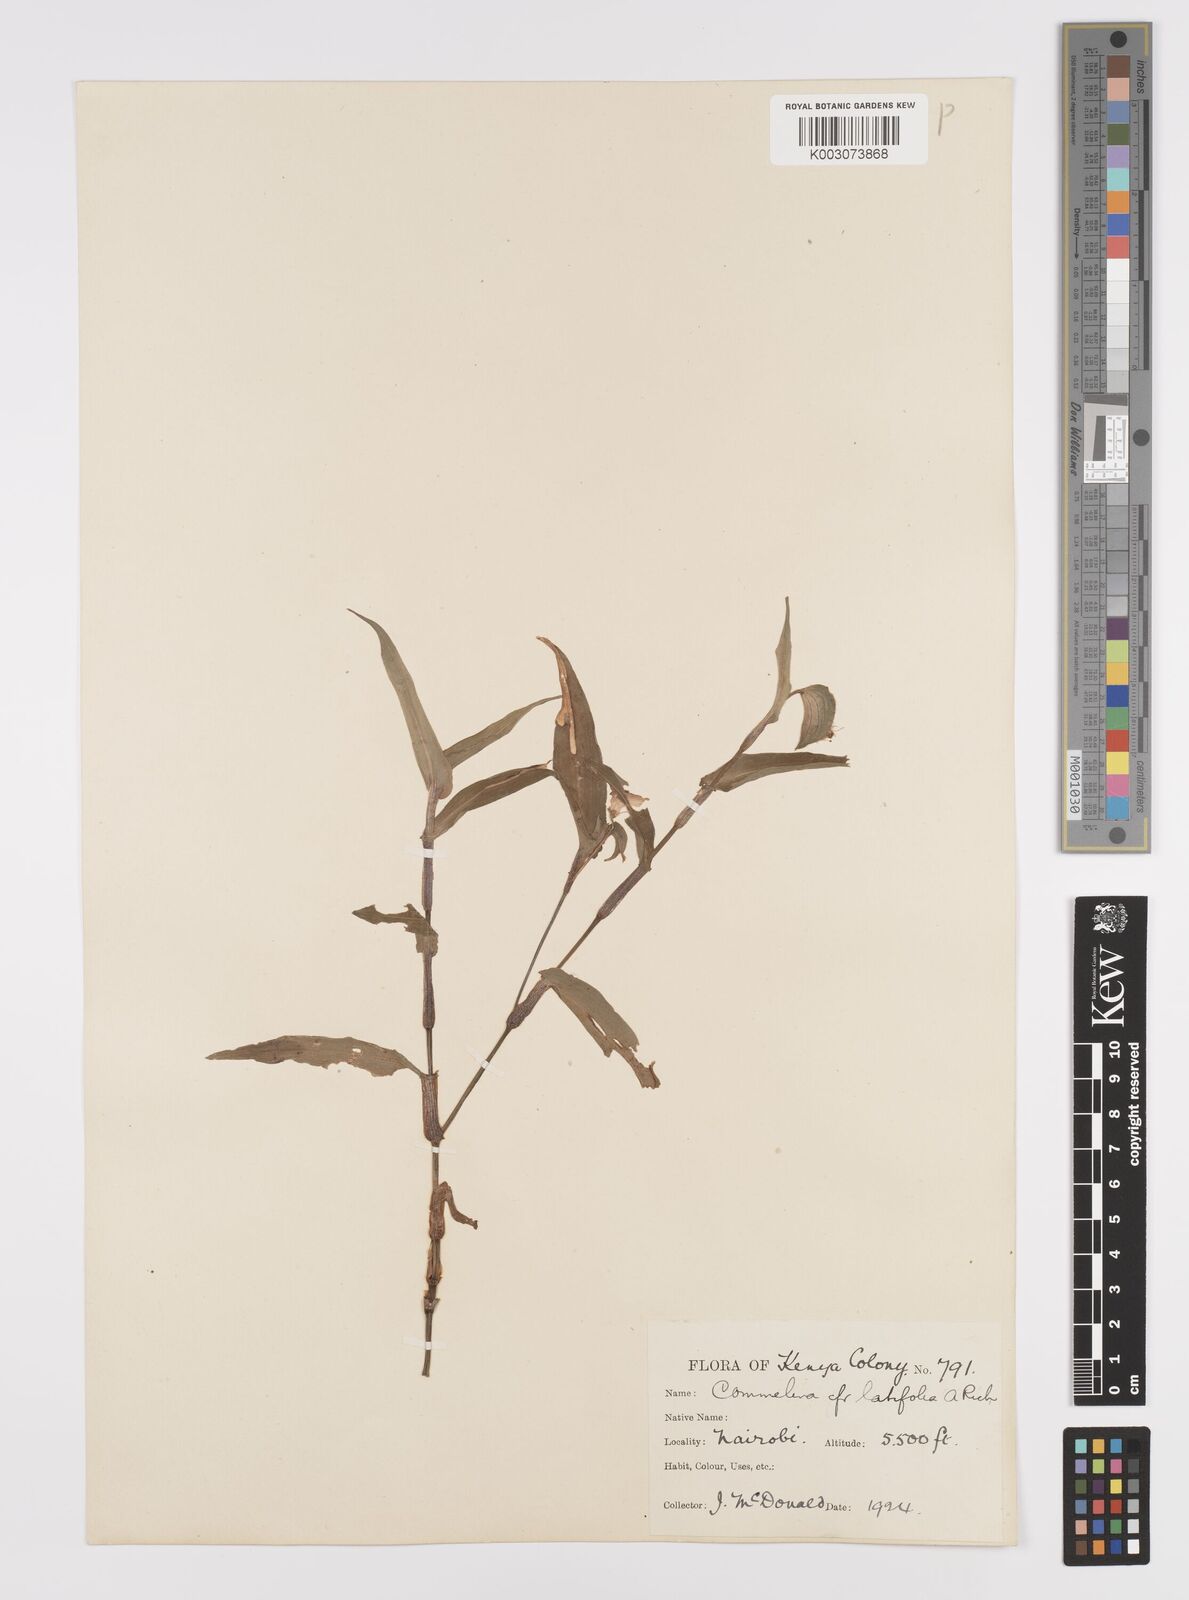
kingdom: Plantae
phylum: Tracheophyta
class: Liliopsida
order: Commelinales
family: Commelinaceae
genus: Commelina
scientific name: Commelina latifolia
